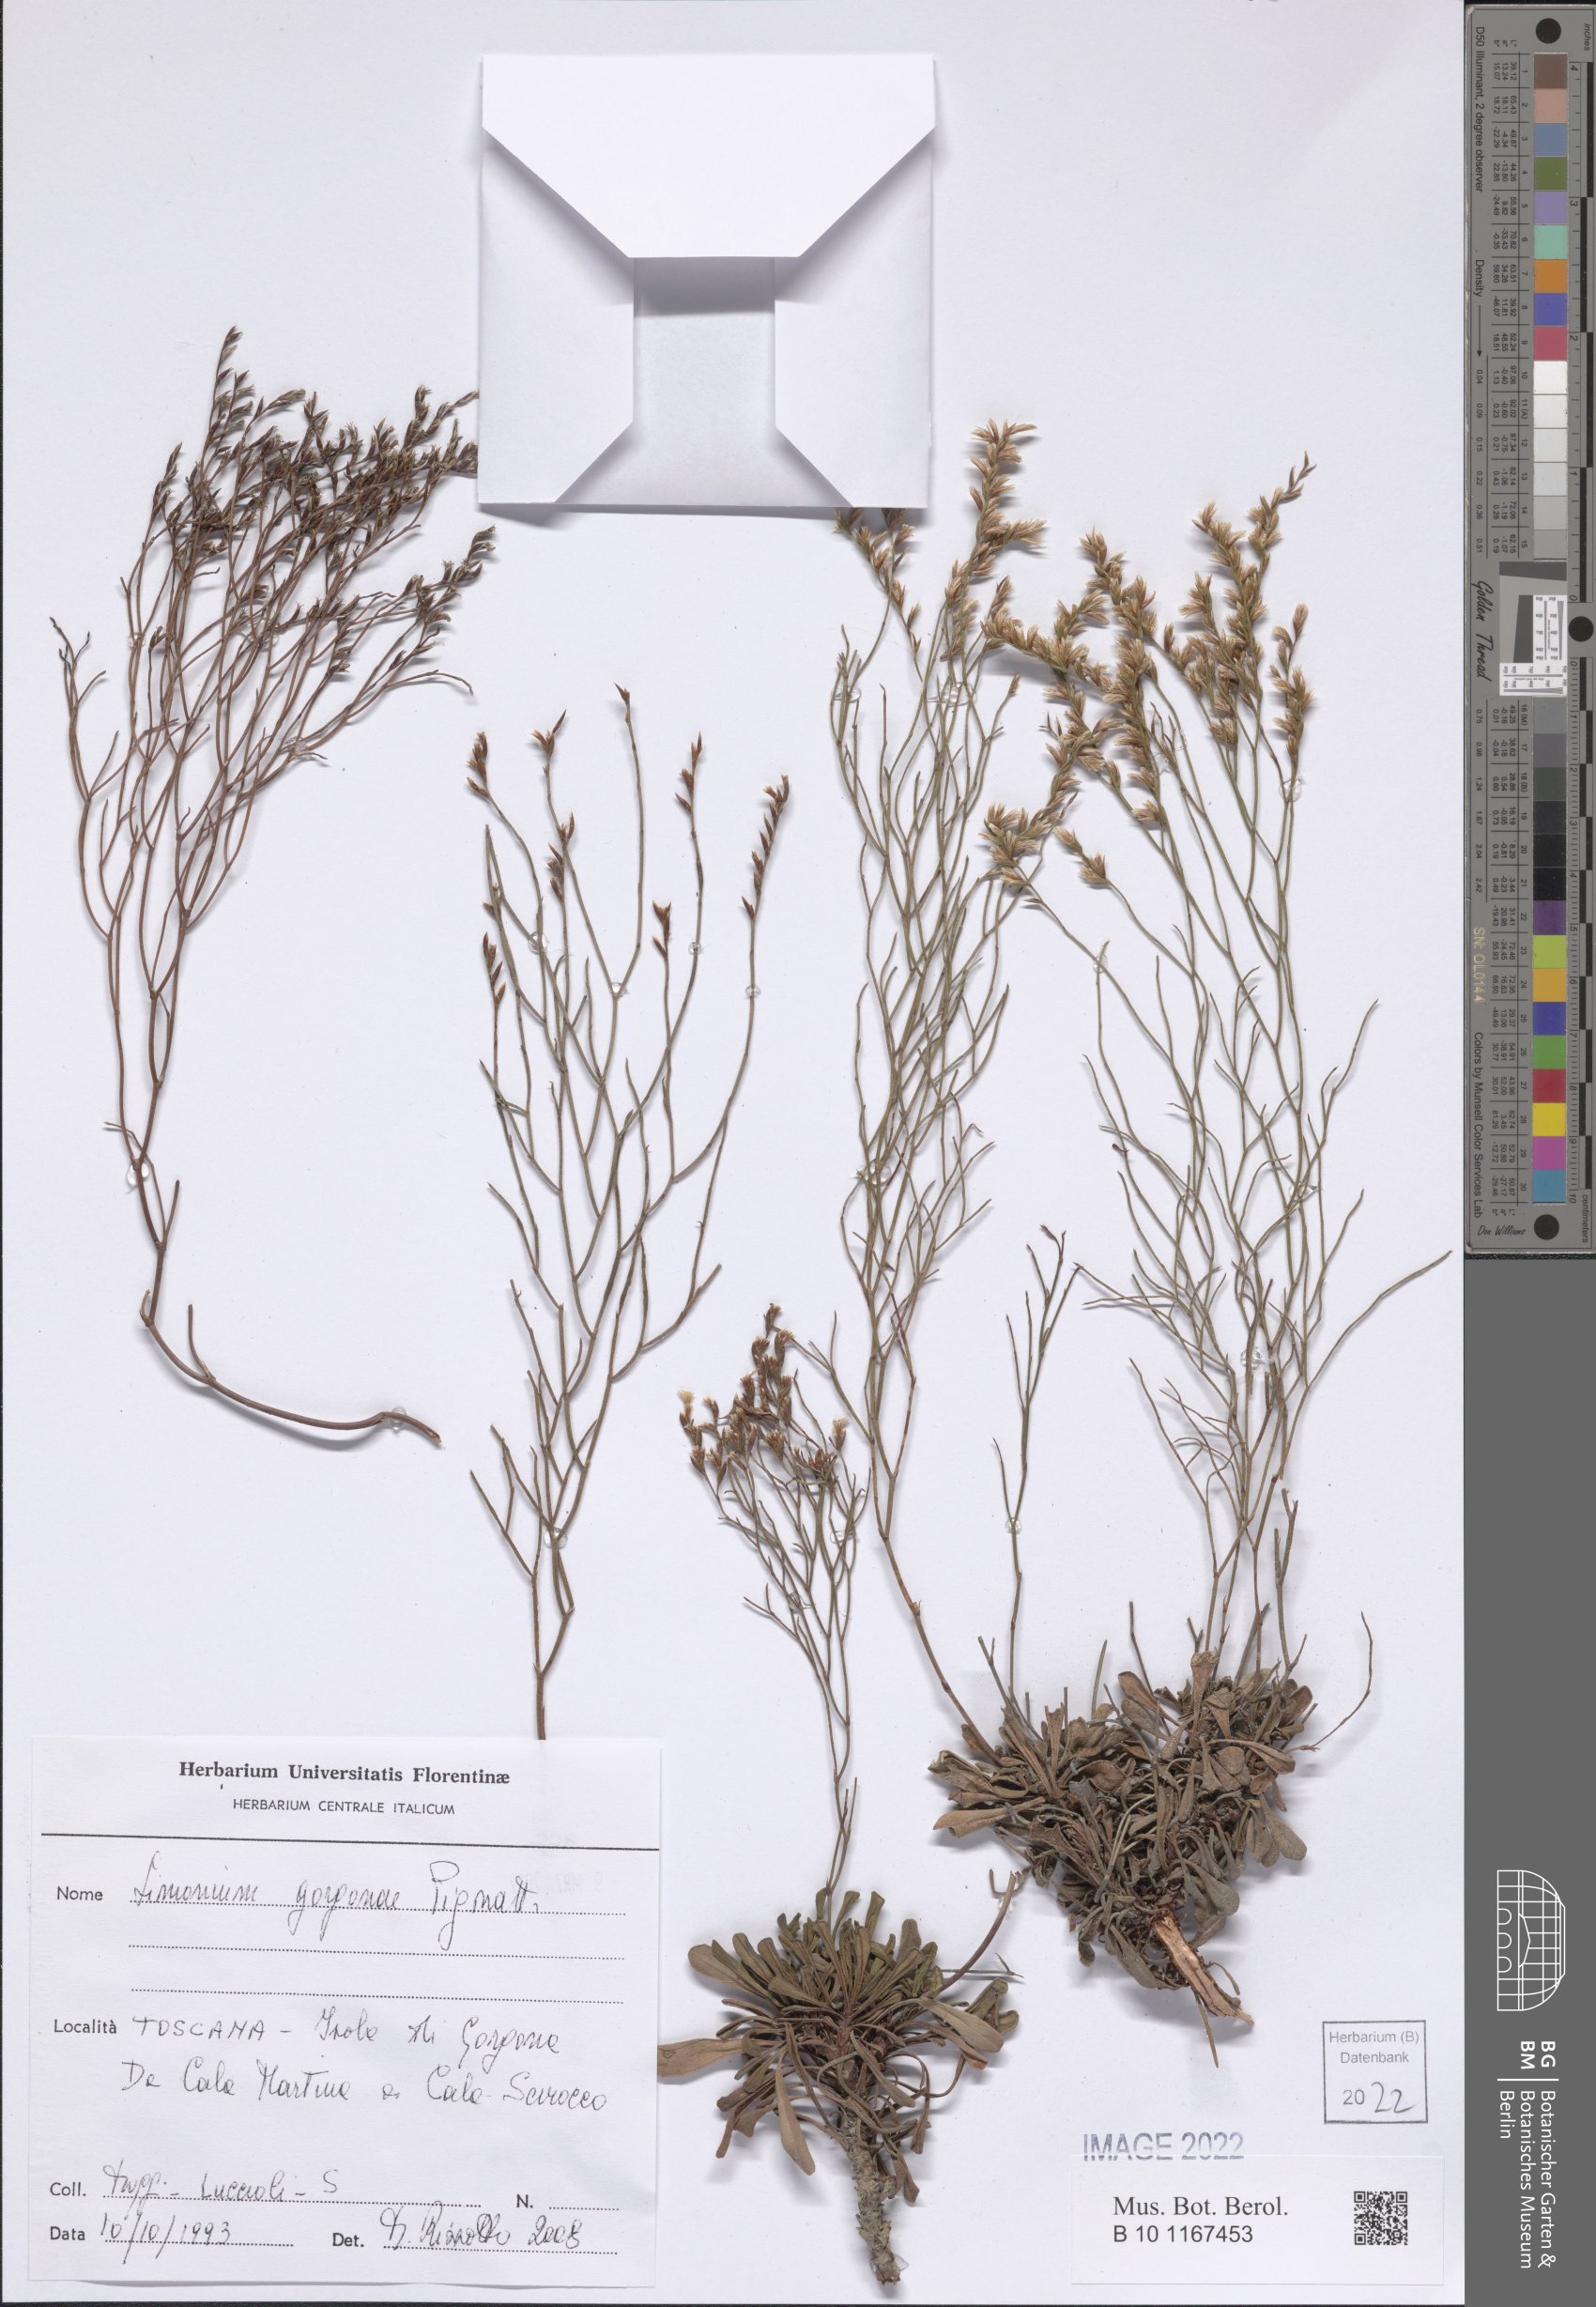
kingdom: Plantae
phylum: Tracheophyta
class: Magnoliopsida
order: Caryophyllales
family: Plumbaginaceae
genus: Limonium
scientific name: Limonium gorgonae
